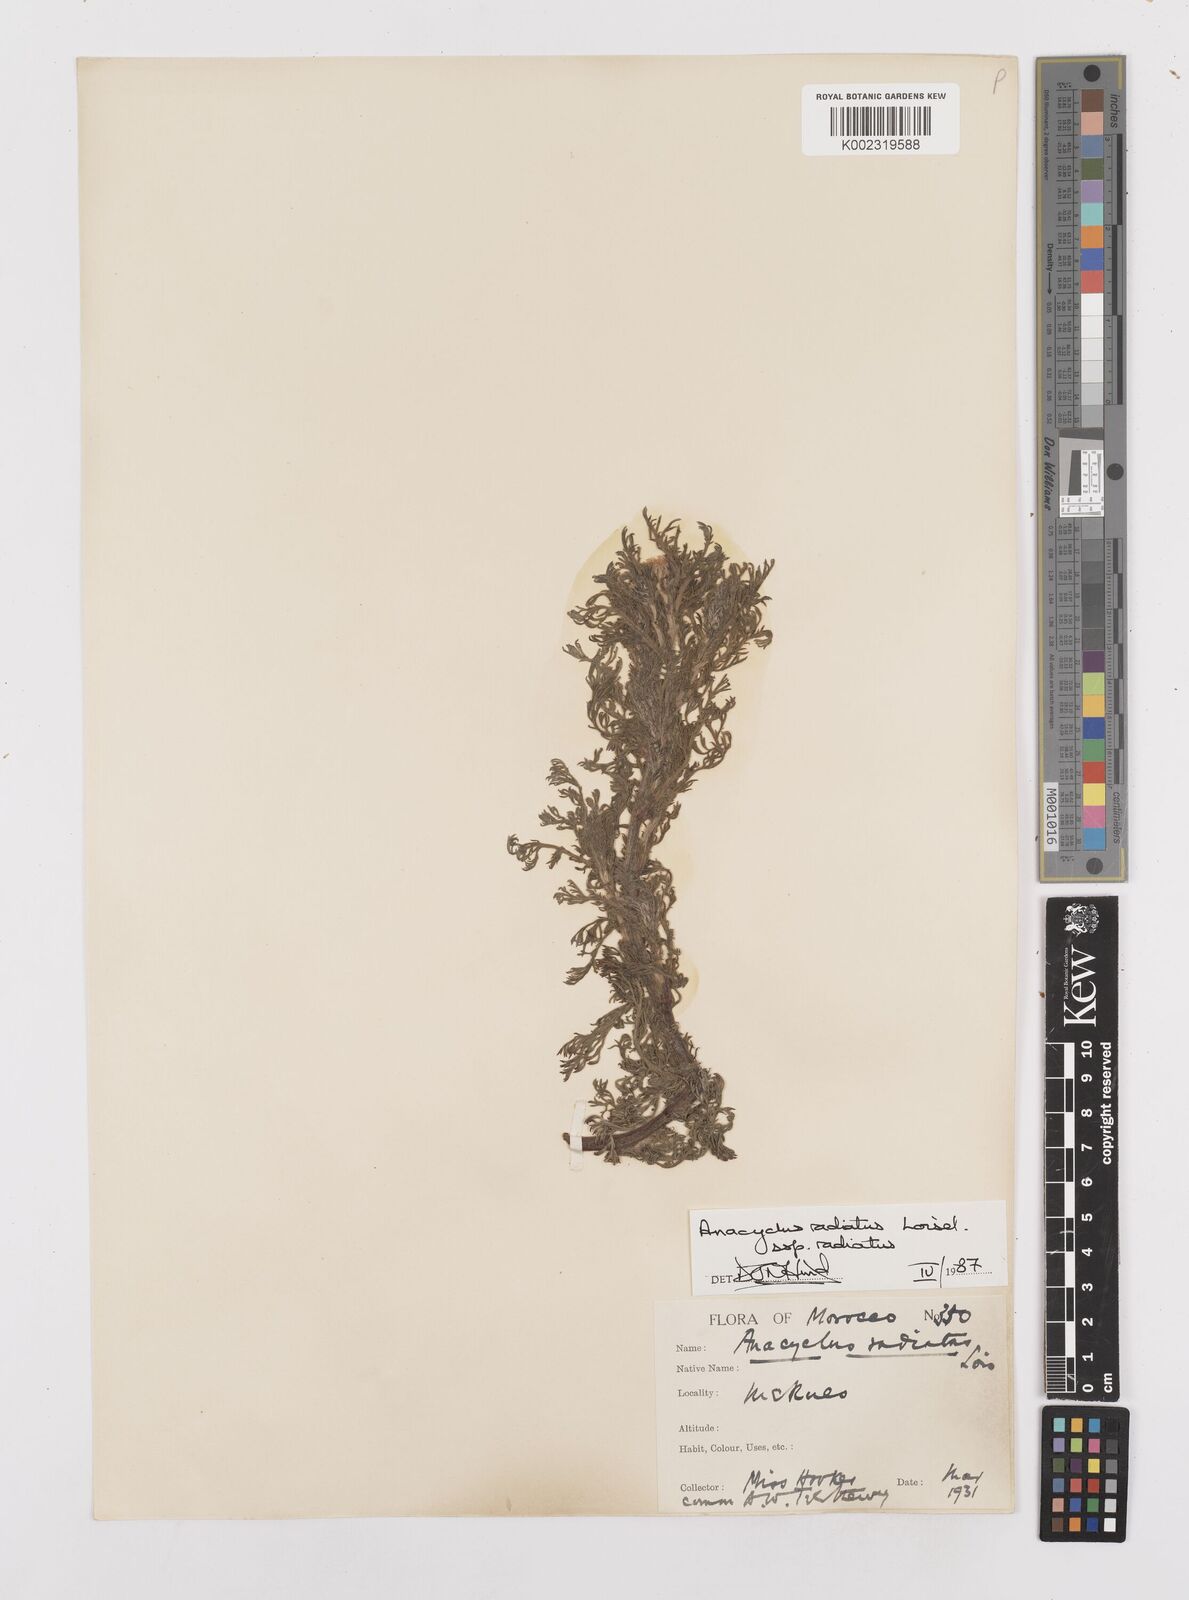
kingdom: Plantae
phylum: Tracheophyta
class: Magnoliopsida
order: Asterales
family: Asteraceae
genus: Anacyclus
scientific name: Anacyclus radiatus
